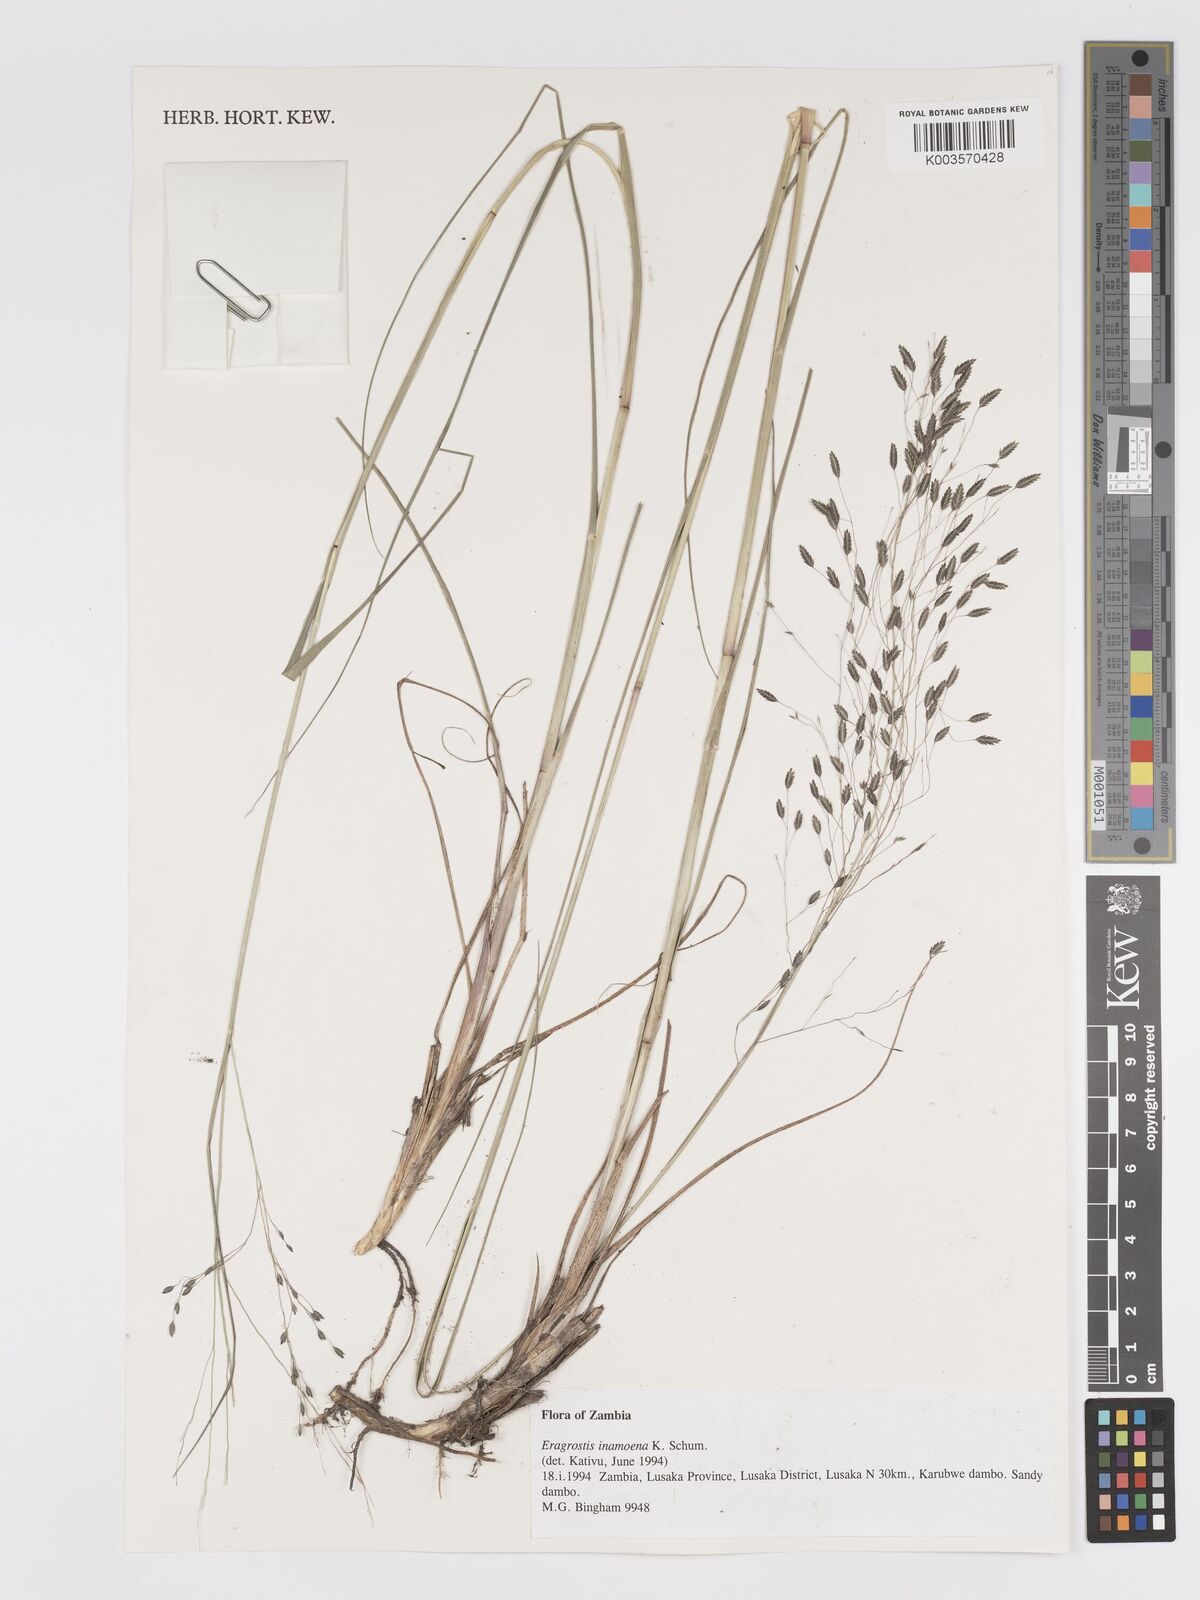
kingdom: Plantae
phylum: Tracheophyta
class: Liliopsida
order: Poales
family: Poaceae
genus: Eragrostis
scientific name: Eragrostis inamoena
